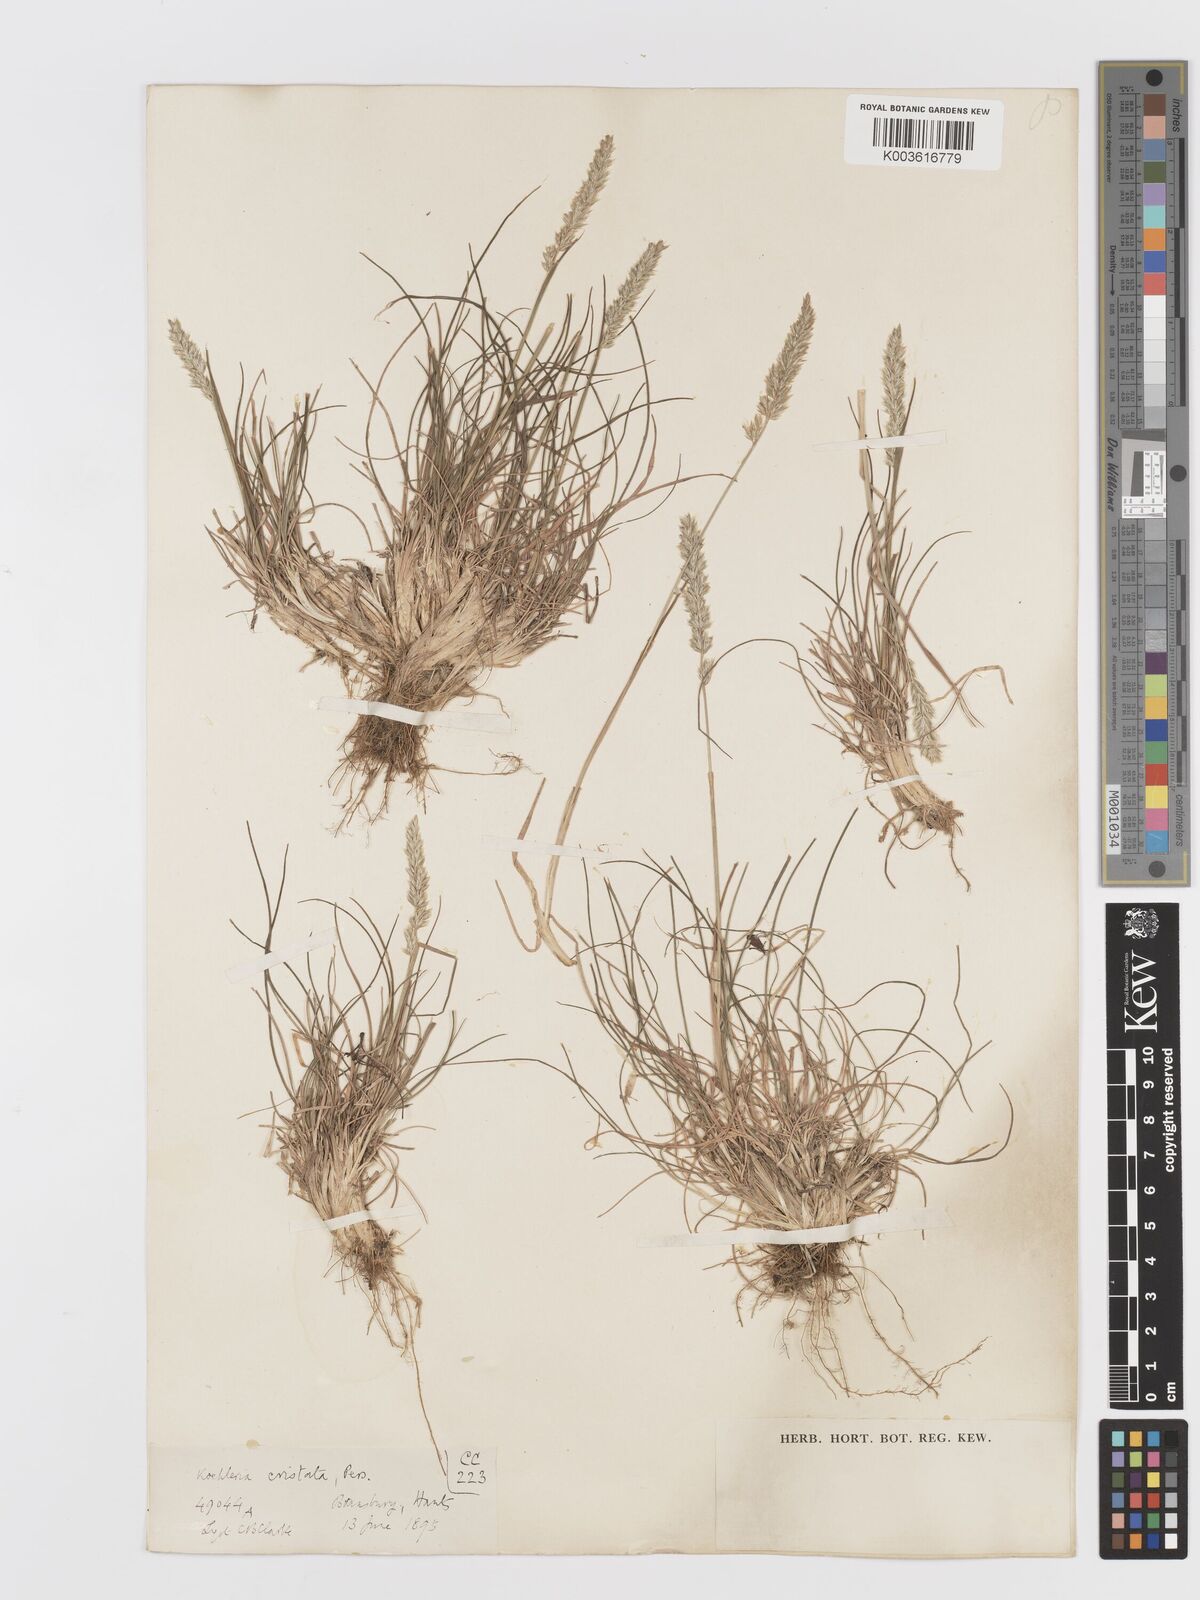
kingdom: Plantae
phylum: Tracheophyta
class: Liliopsida
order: Poales
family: Poaceae
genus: Koeleria
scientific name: Koeleria macrantha
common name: Crested hair-grass
